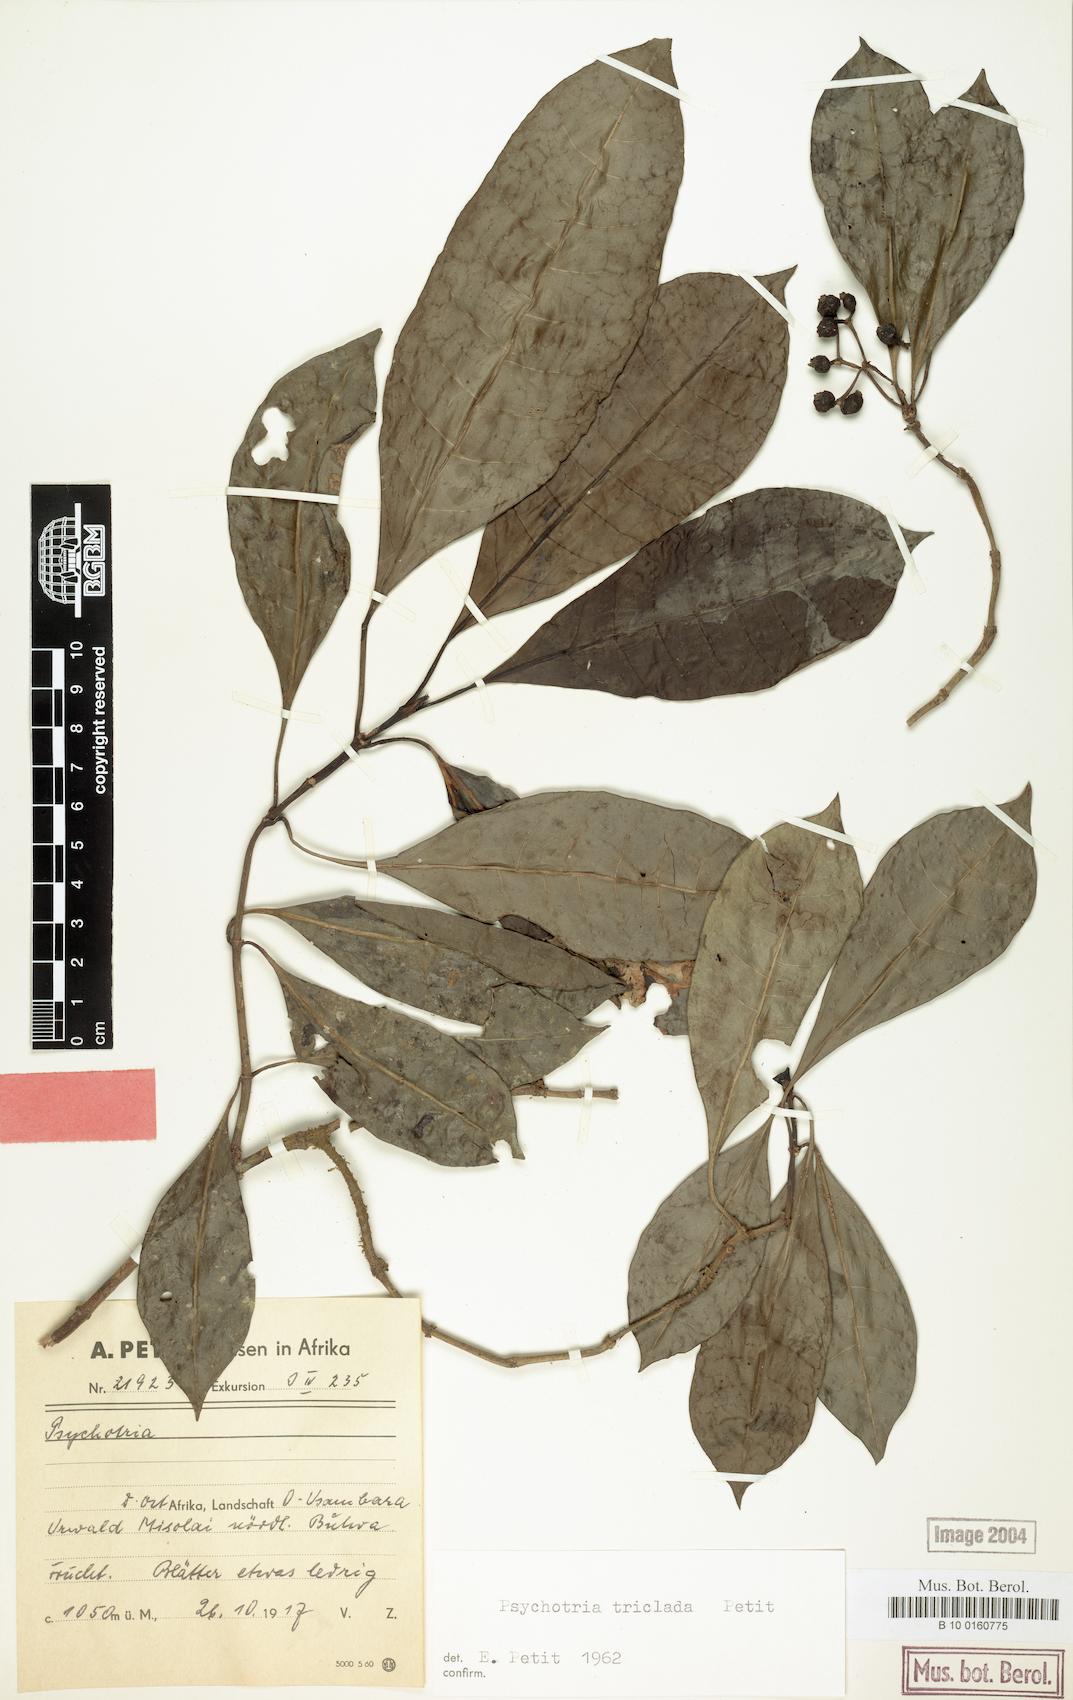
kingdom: Plantae
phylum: Tracheophyta
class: Magnoliopsida
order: Gentianales
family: Rubiaceae
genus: Psychotria
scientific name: Psychotria triclada
